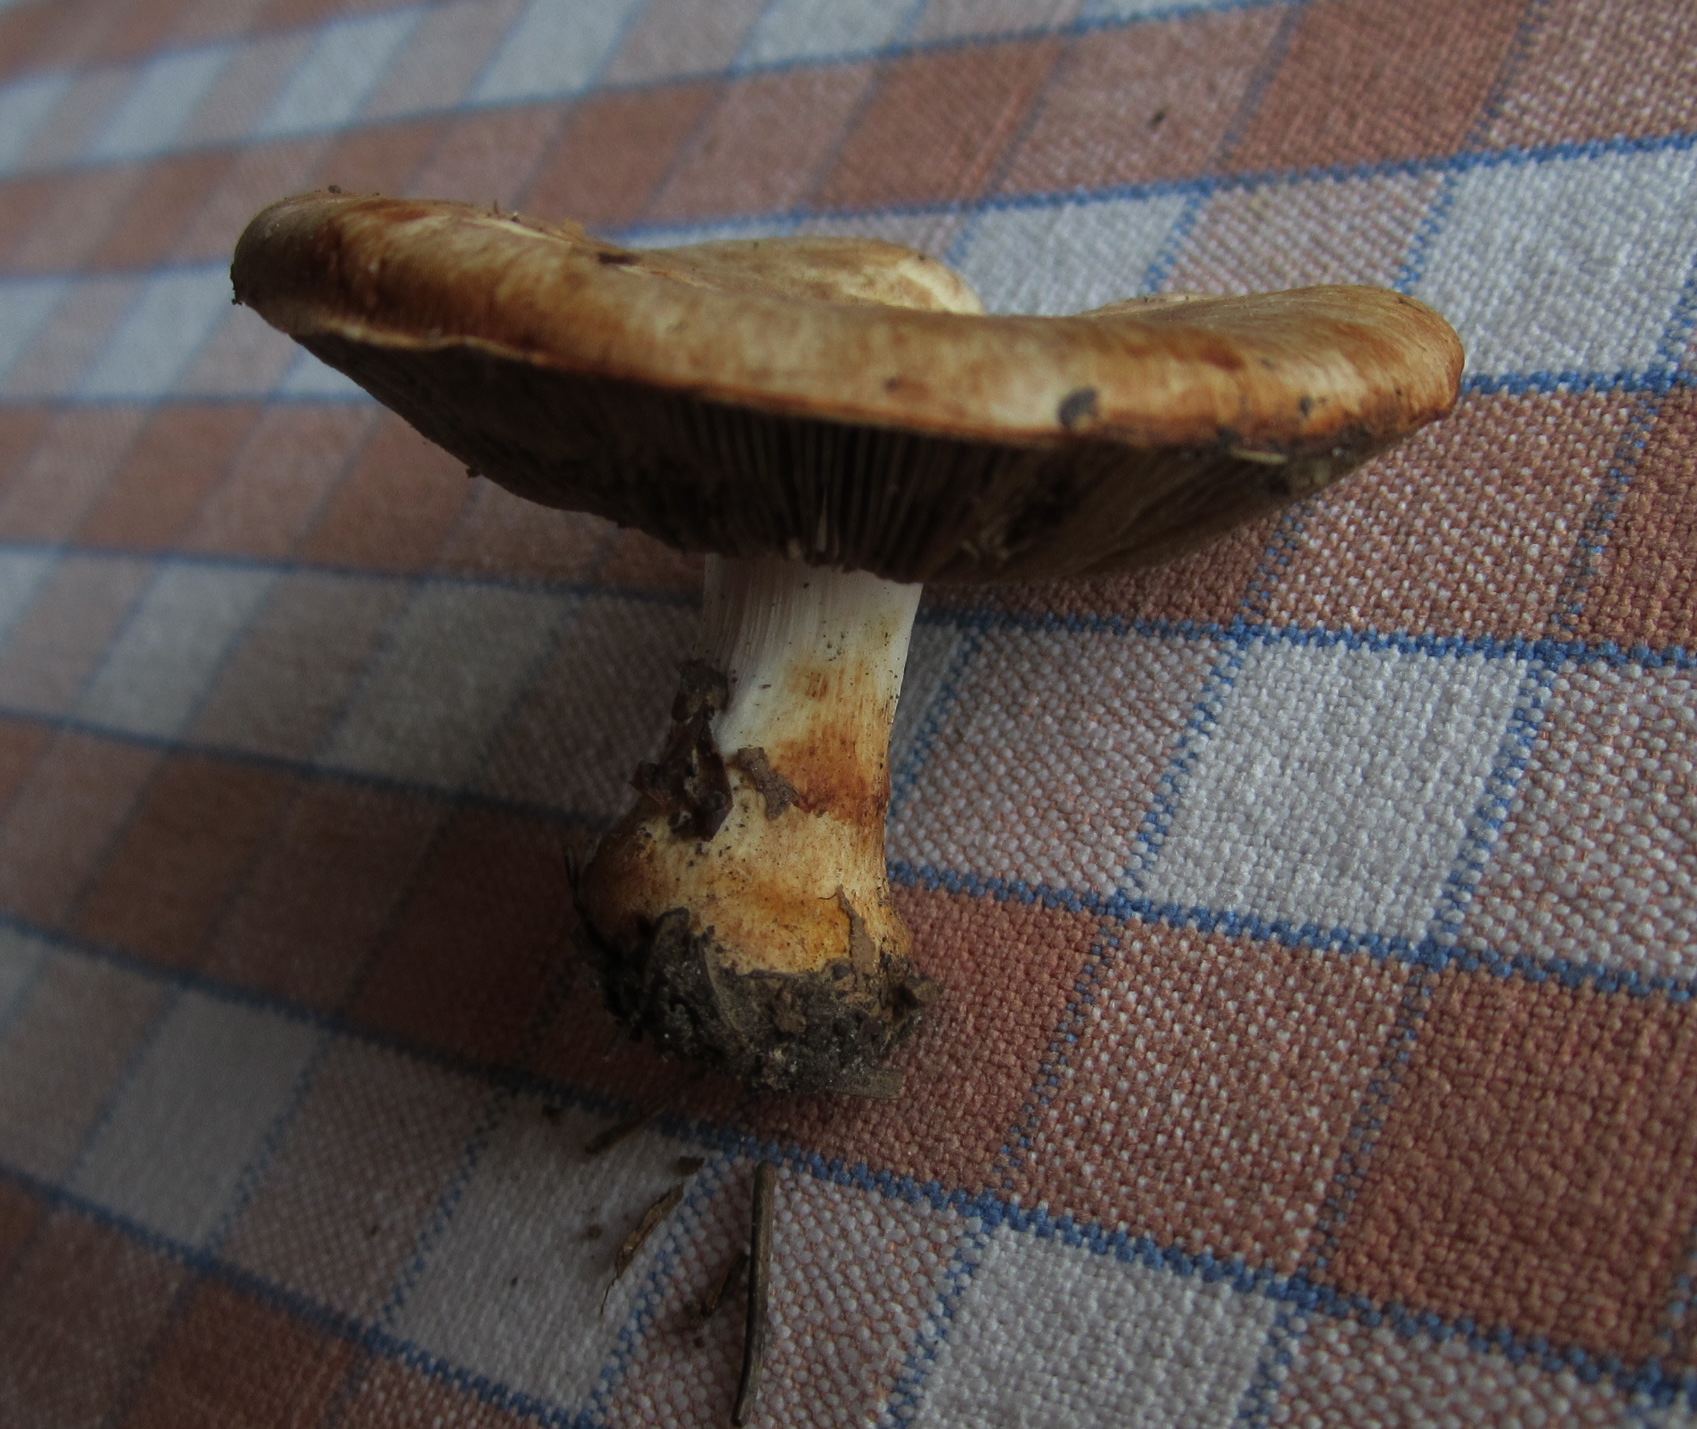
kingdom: Fungi
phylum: Basidiomycota
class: Agaricomycetes
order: Agaricales
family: Agaricaceae
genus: Agaricus
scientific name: Agaricus brunneolus
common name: purpur-champignon
